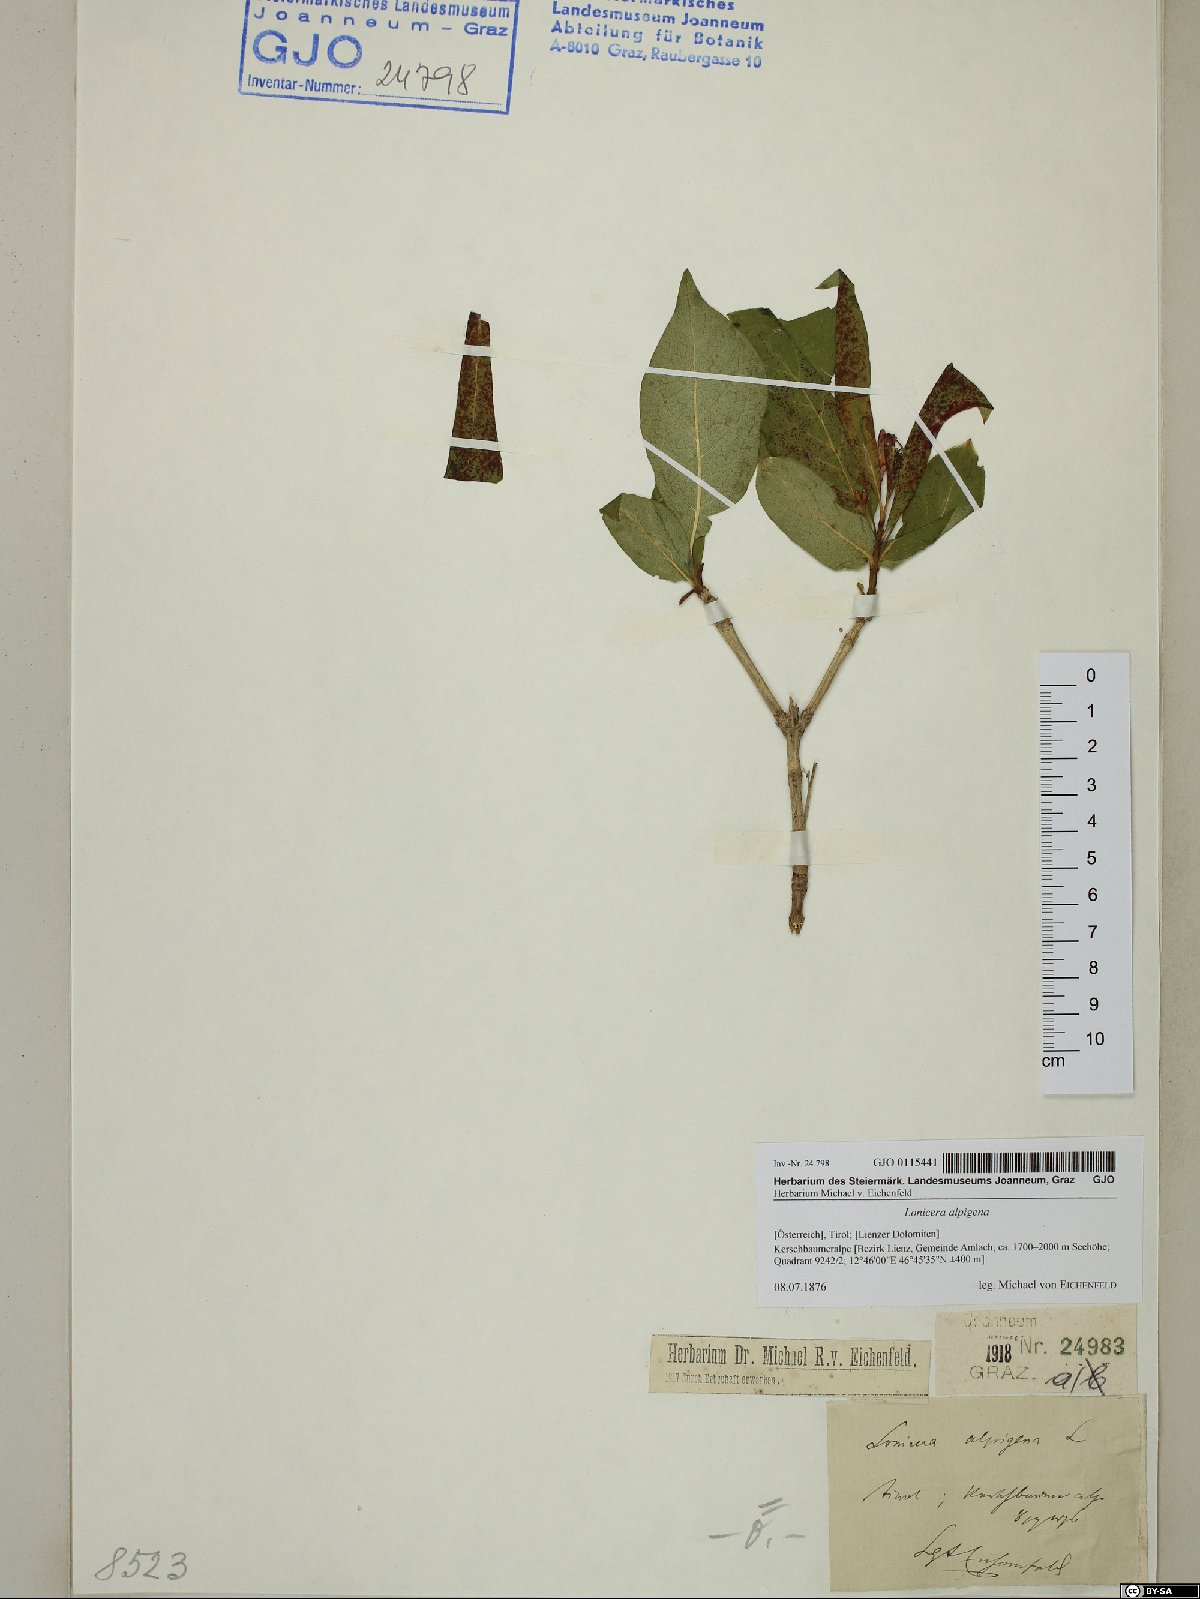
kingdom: Plantae
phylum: Tracheophyta
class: Magnoliopsida
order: Dipsacales
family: Caprifoliaceae
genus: Lonicera
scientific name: Lonicera alpigena
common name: Alpine honeysuckle
